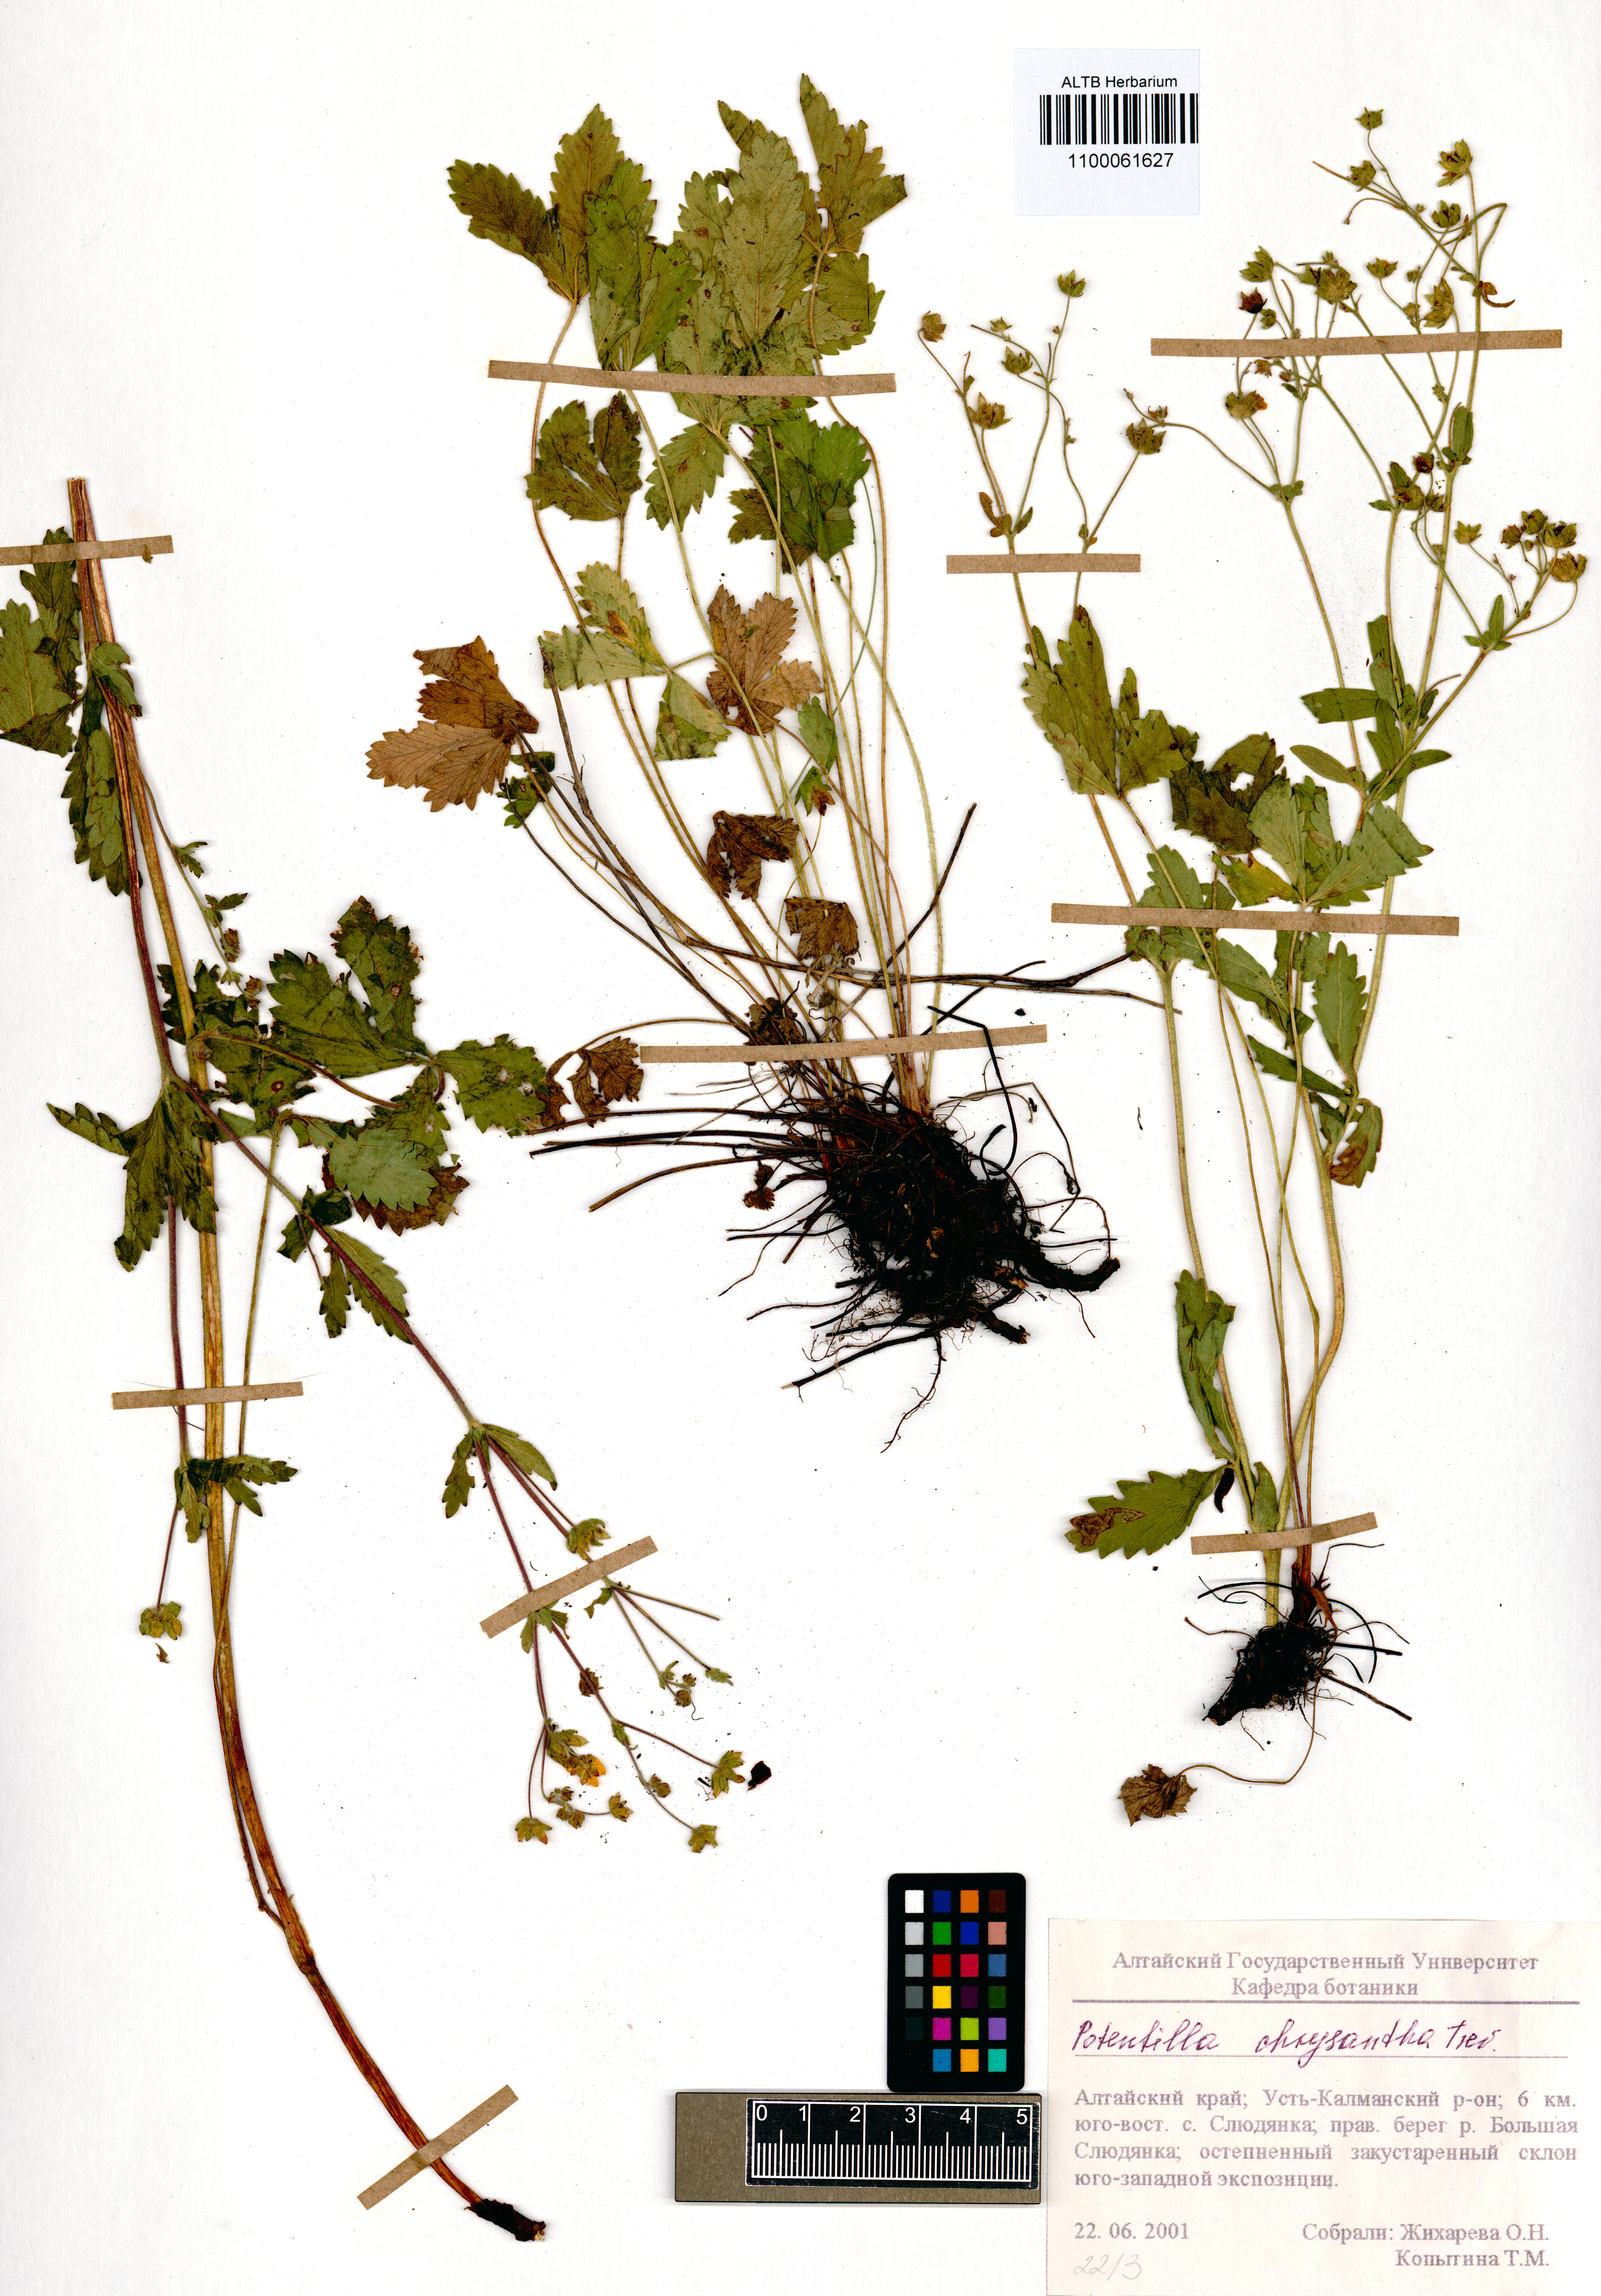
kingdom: Plantae
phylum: Tracheophyta
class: Magnoliopsida
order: Rosales
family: Rosaceae
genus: Potentilla
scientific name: Potentilla chrysantha
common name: Thuringian cinquefoil
